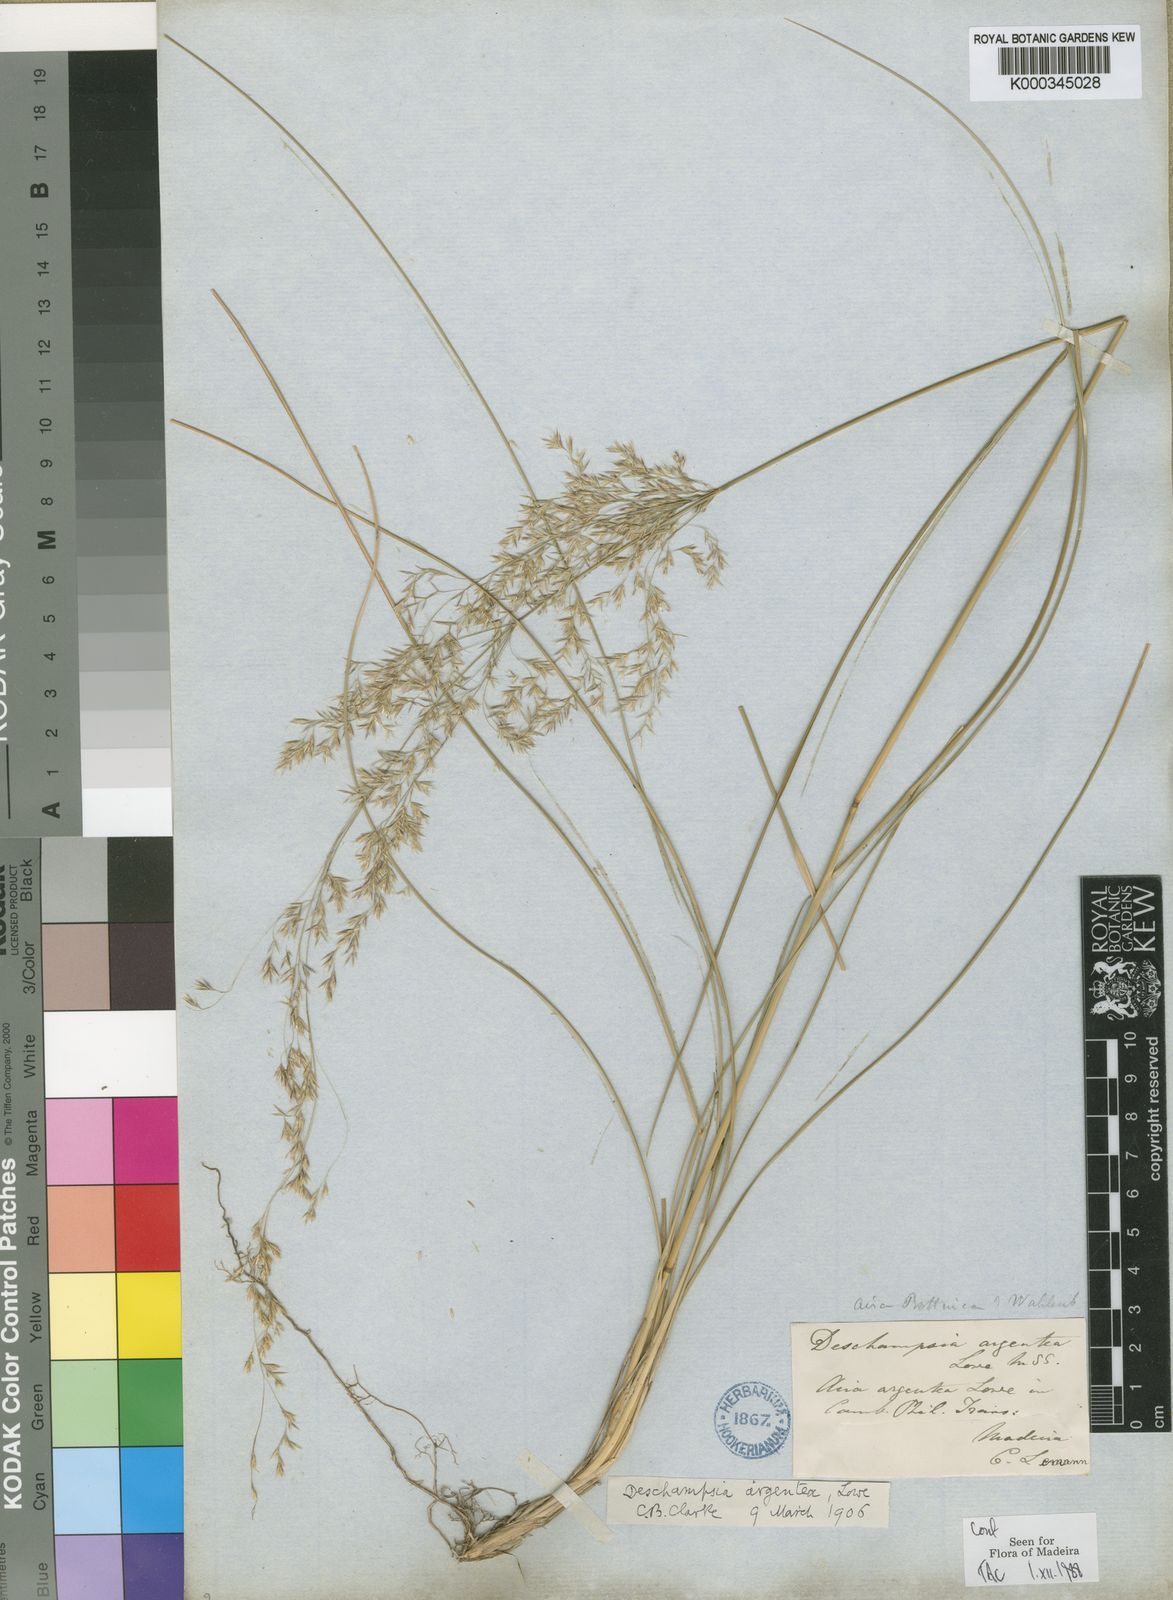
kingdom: Plantae
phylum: Tracheophyta
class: Liliopsida
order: Poales
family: Poaceae
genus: Deschampsia
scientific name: Deschampsia argentea
